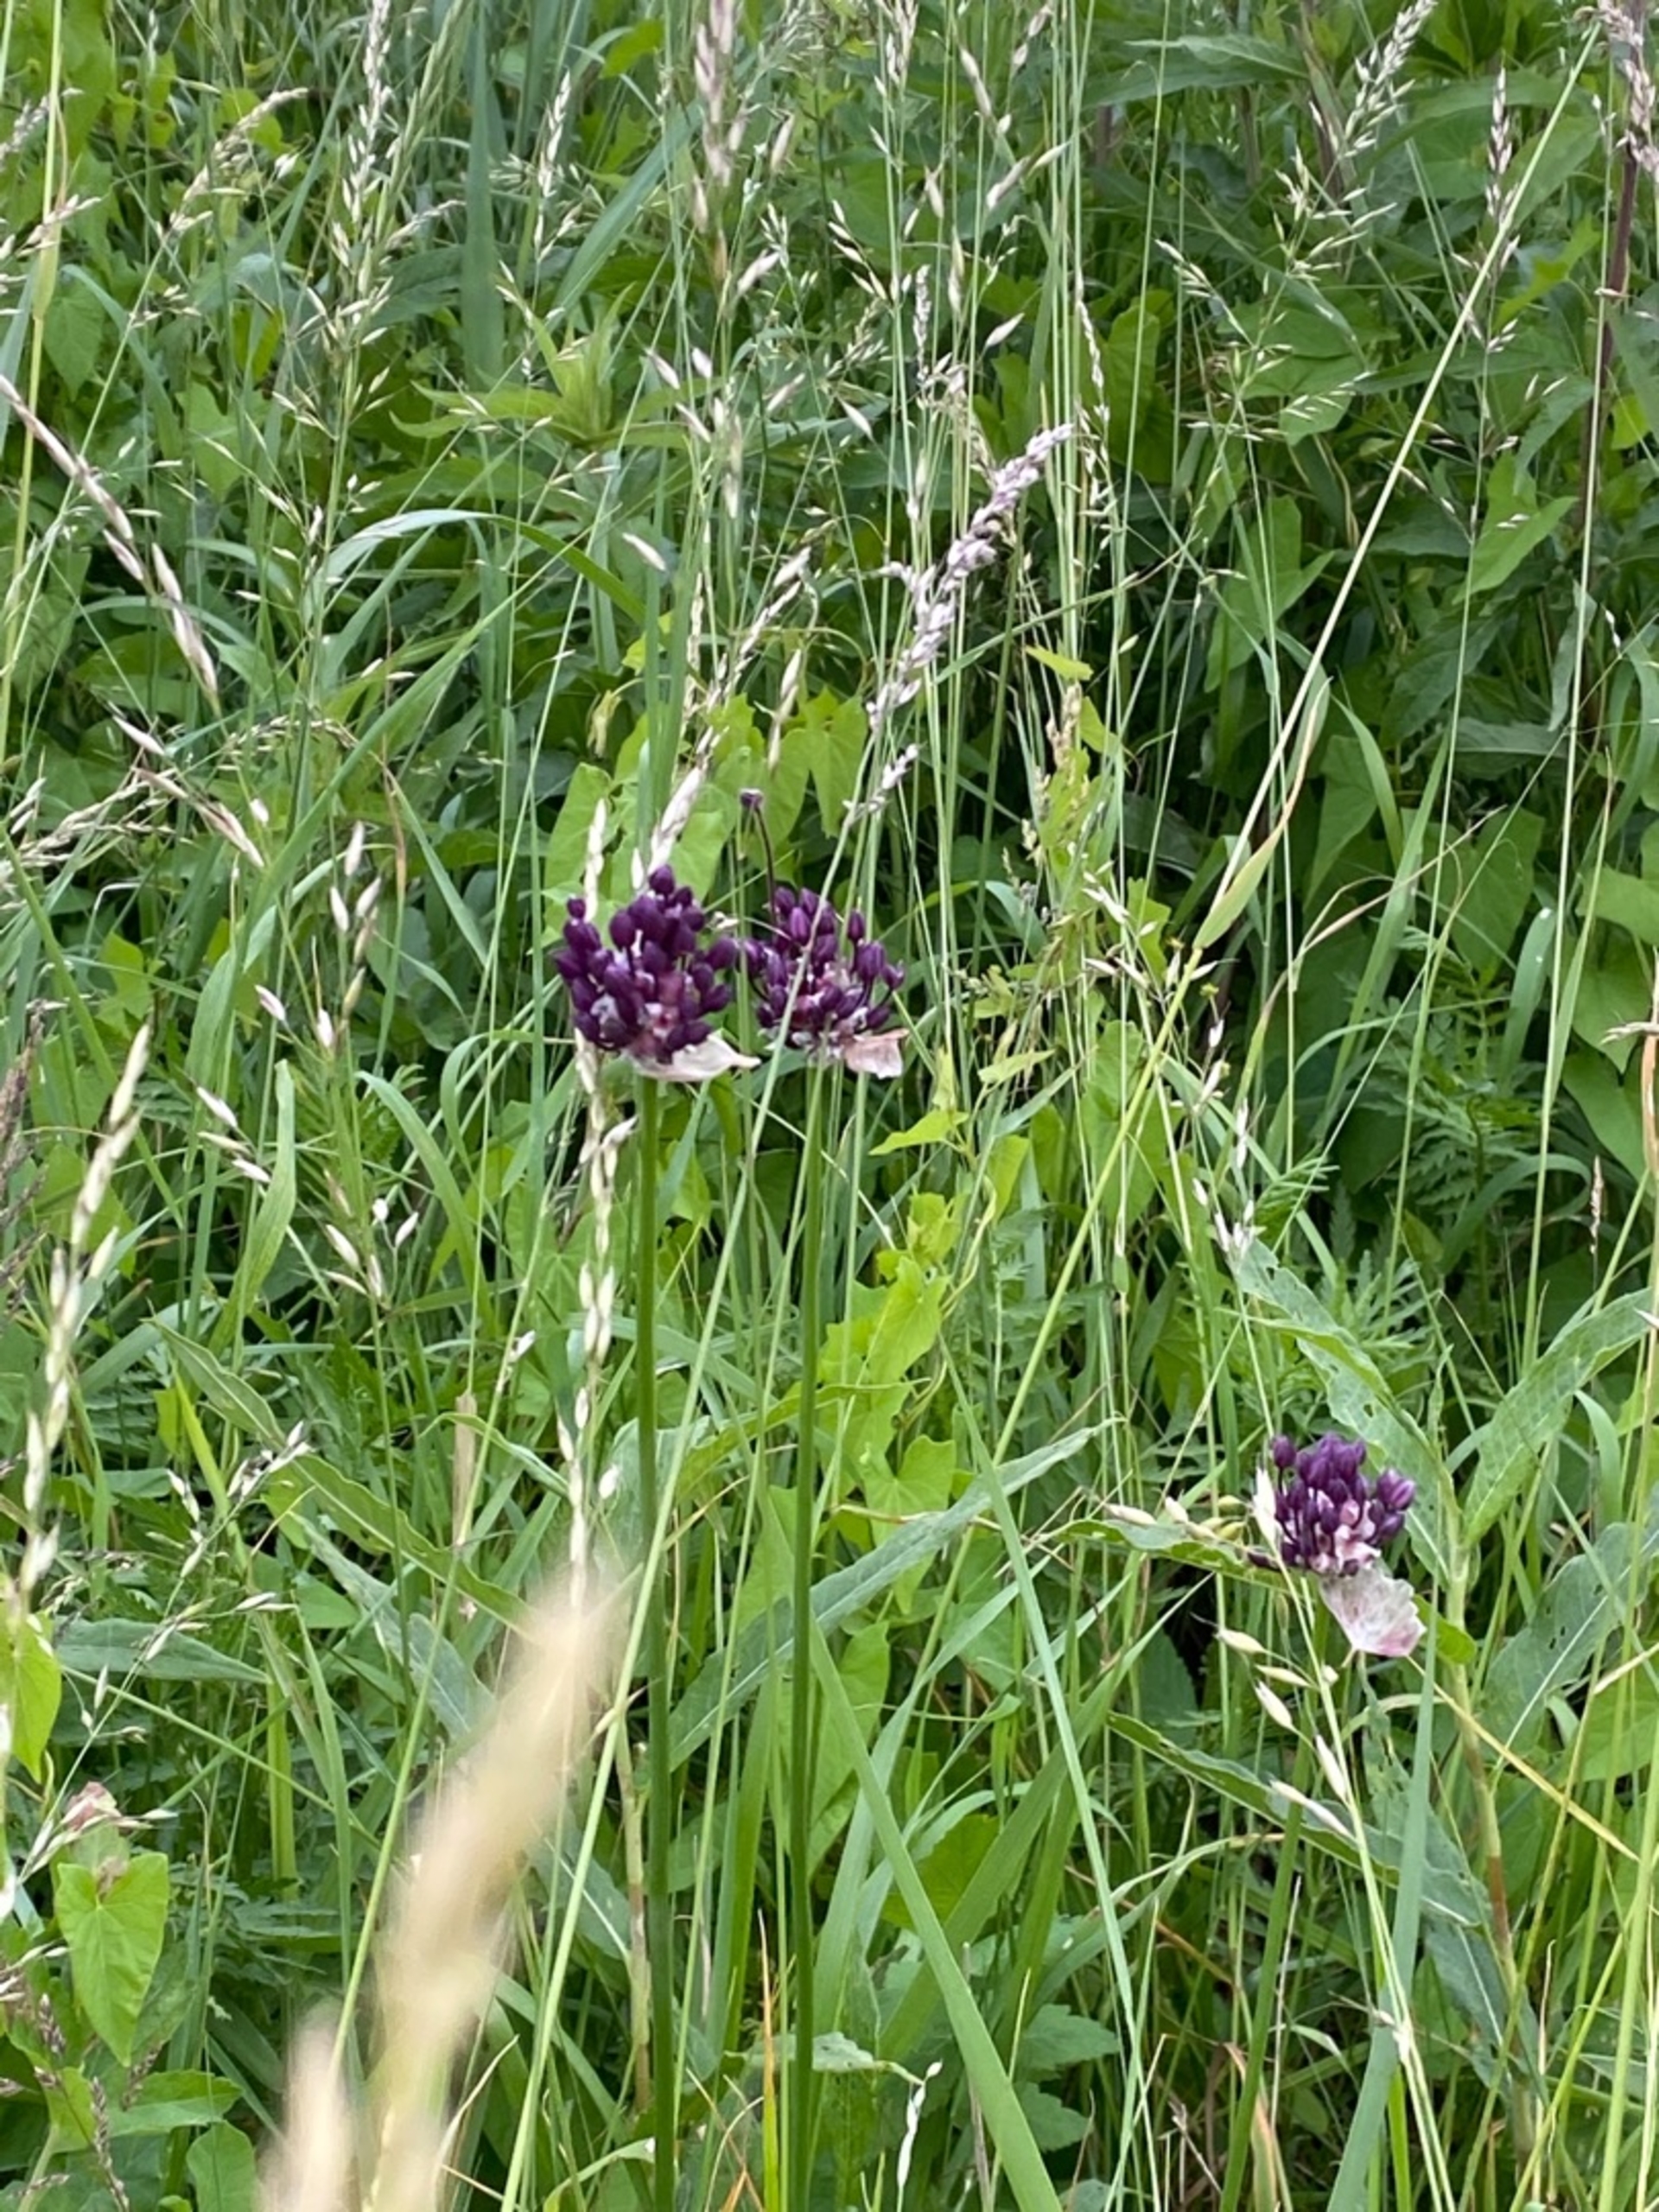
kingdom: Plantae
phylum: Tracheophyta
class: Liliopsida
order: Asparagales
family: Amaryllidaceae
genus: Allium
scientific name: Allium scorodoprasum
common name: Skov-løg
